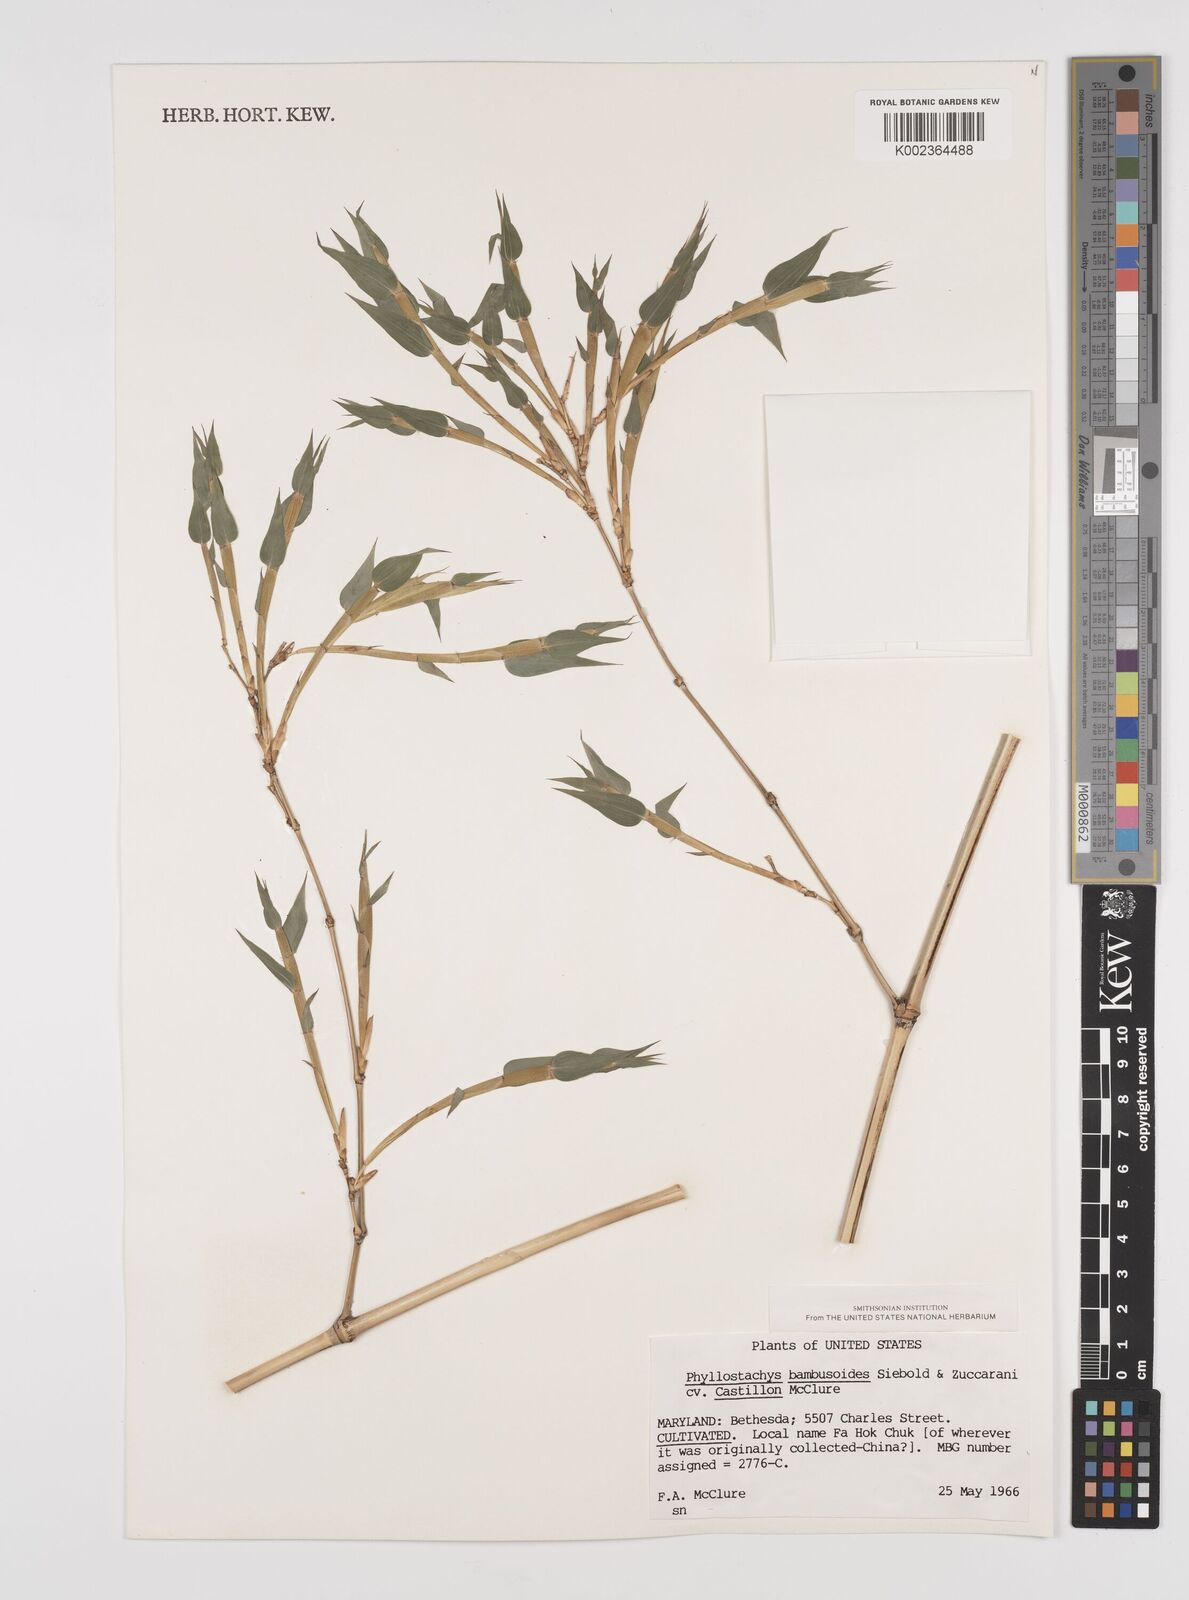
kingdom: Plantae
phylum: Tracheophyta
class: Liliopsida
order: Poales
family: Poaceae
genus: Phyllostachys
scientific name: Phyllostachys reticulata
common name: Bamboo
